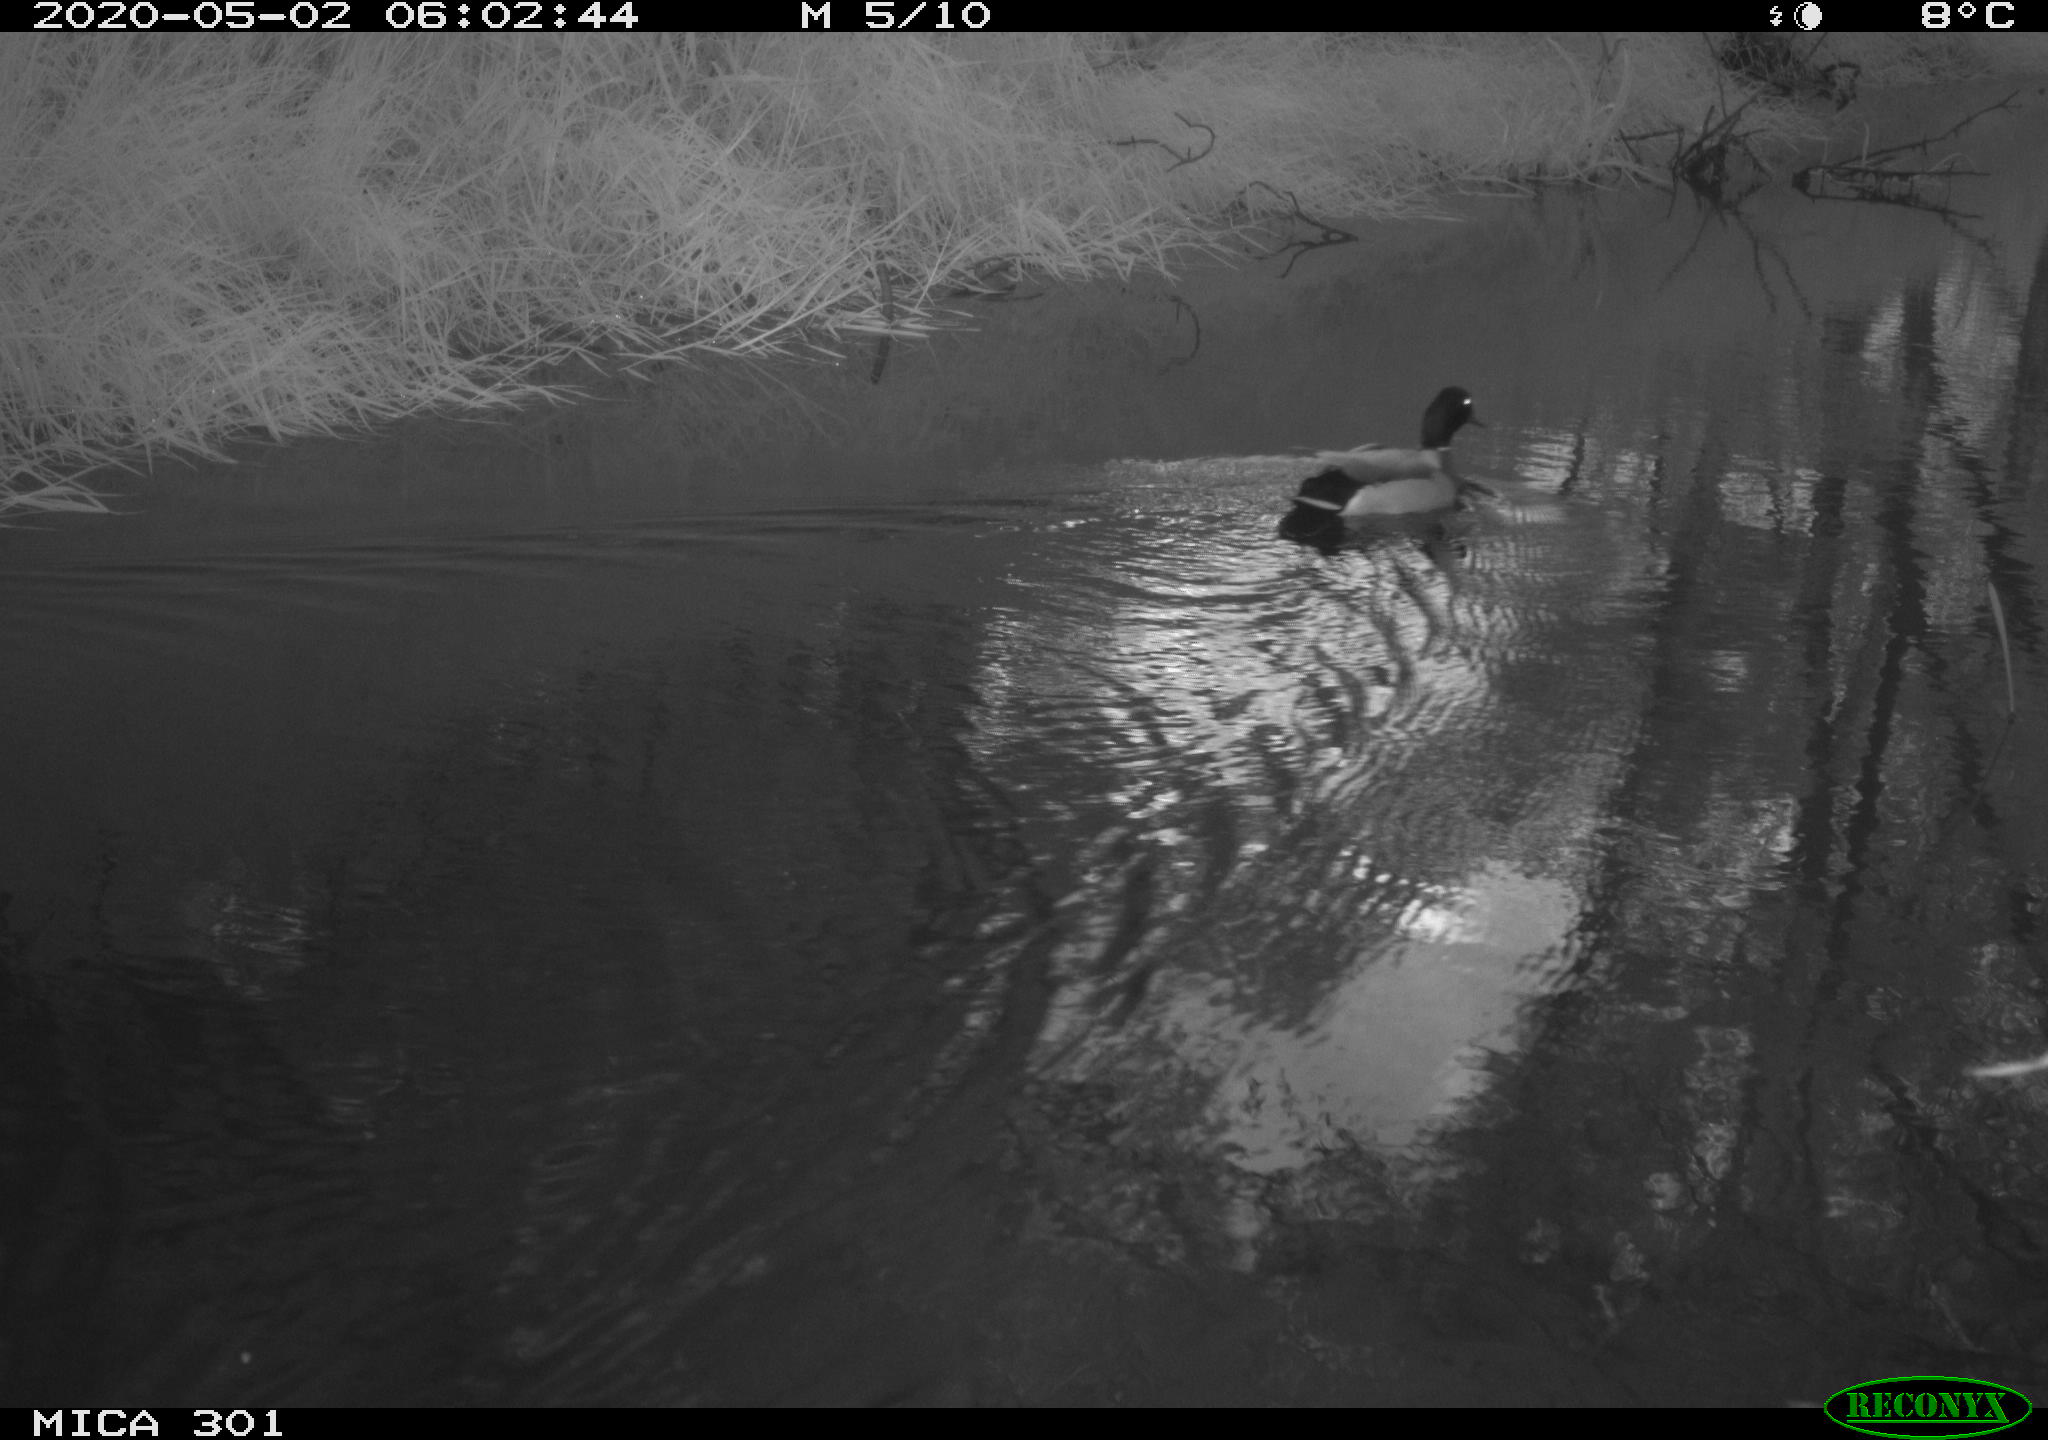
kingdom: Animalia
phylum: Chordata
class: Aves
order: Anseriformes
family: Anatidae
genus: Anas
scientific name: Anas platyrhynchos
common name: Mallard
